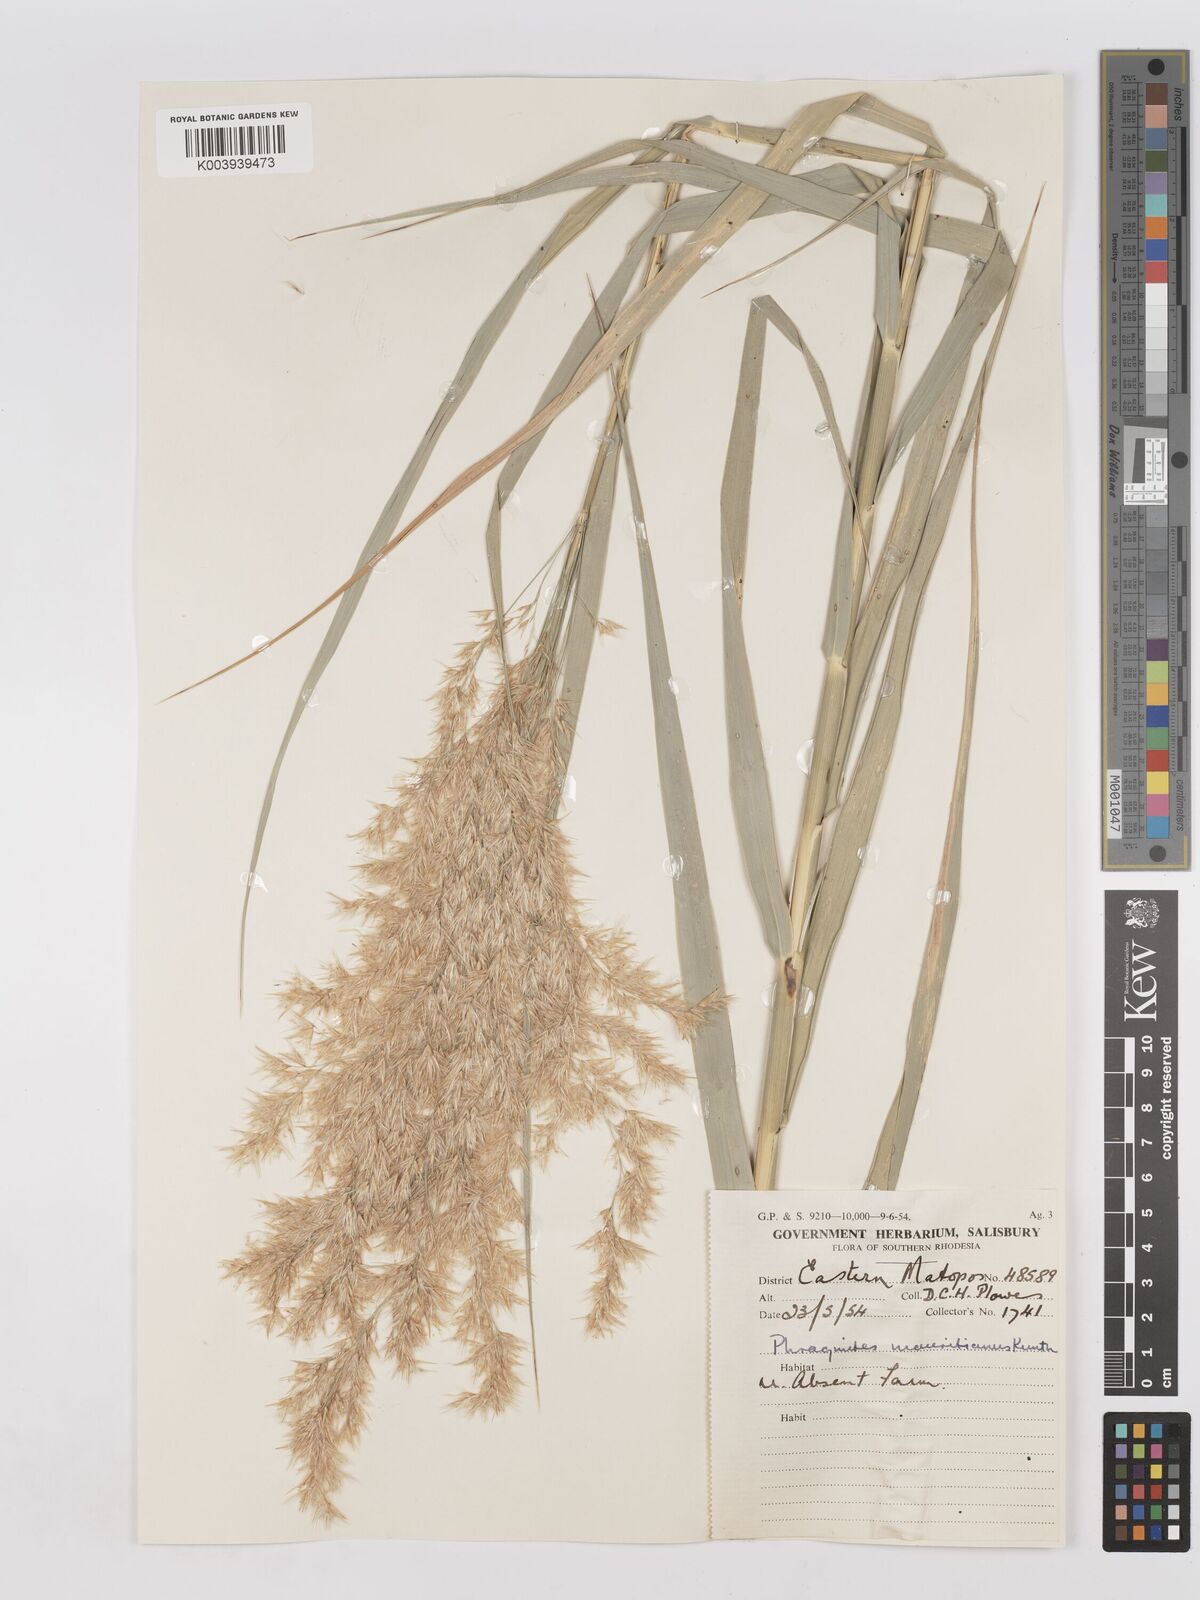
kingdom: Plantae
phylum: Tracheophyta
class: Liliopsida
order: Poales
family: Poaceae
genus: Phragmites
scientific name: Phragmites mauritianus
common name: Reed grass
